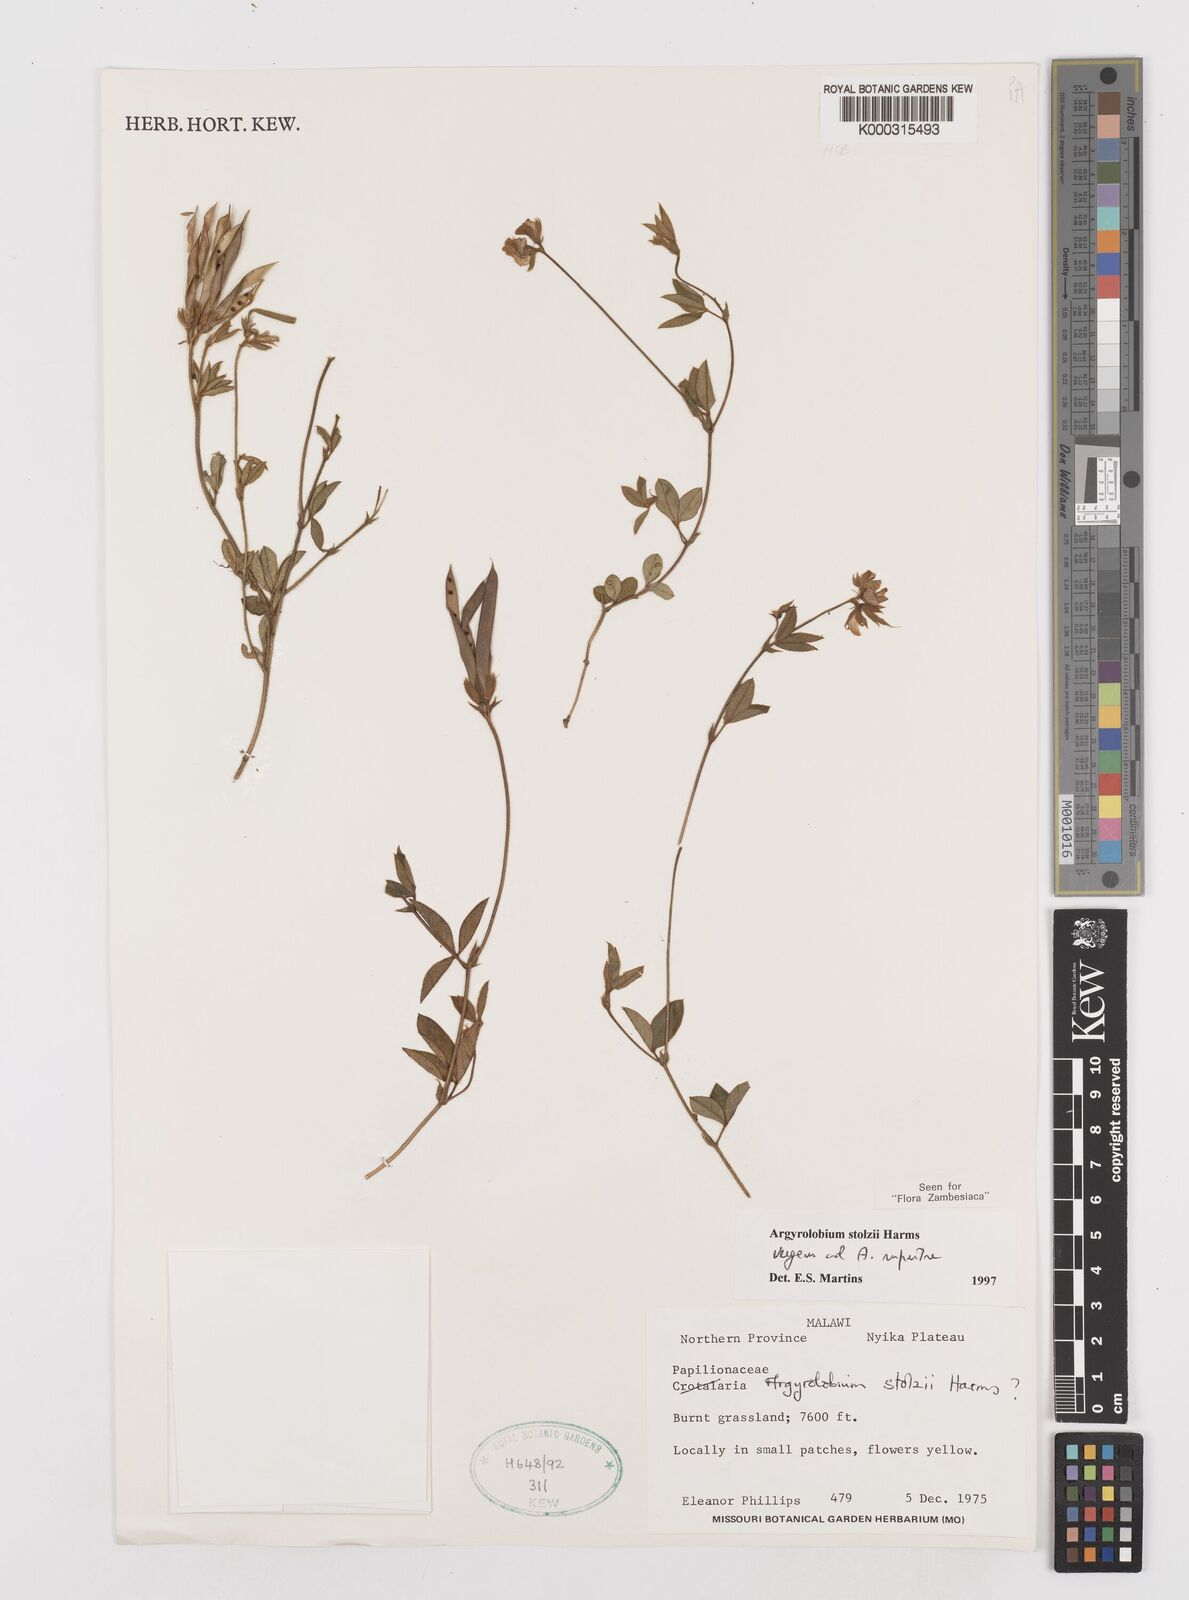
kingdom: Plantae
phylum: Tracheophyta
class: Magnoliopsida
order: Fabales
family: Fabaceae
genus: Argyrolobium
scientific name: Argyrolobium stolzii
